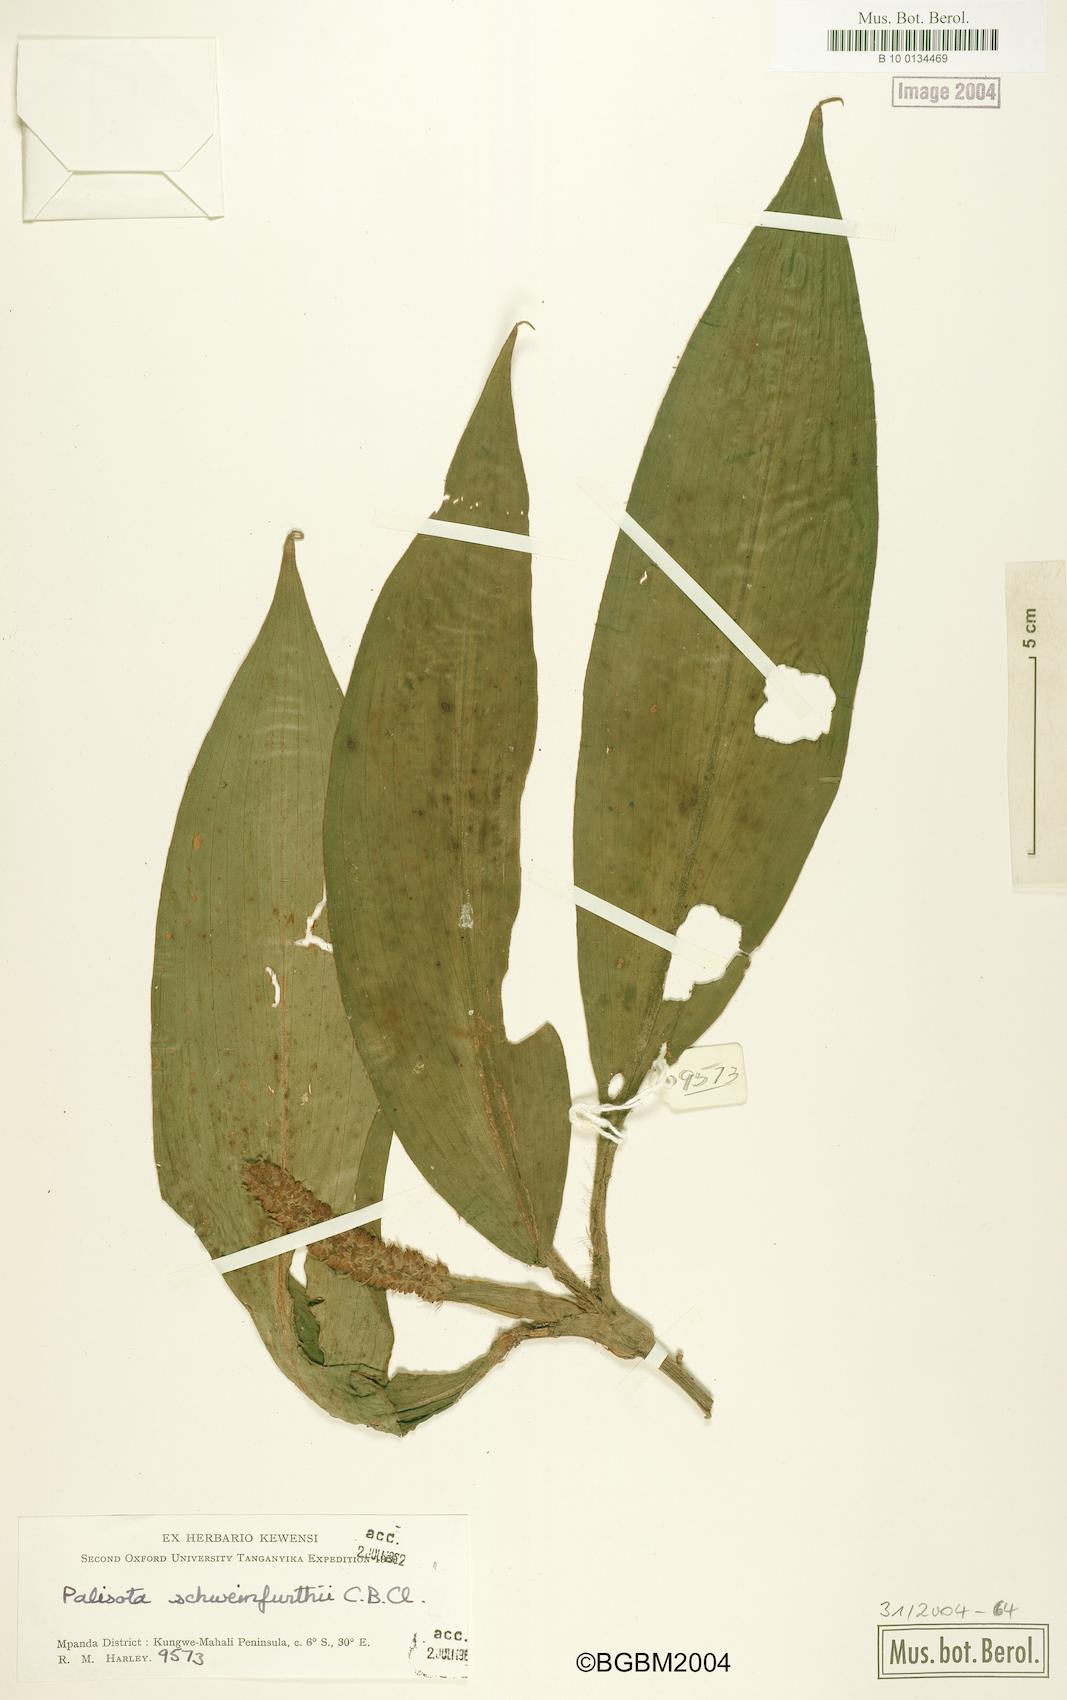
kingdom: Plantae
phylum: Tracheophyta
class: Liliopsida
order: Commelinales
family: Commelinaceae
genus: Palisota
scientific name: Palisota schweinfurthii
